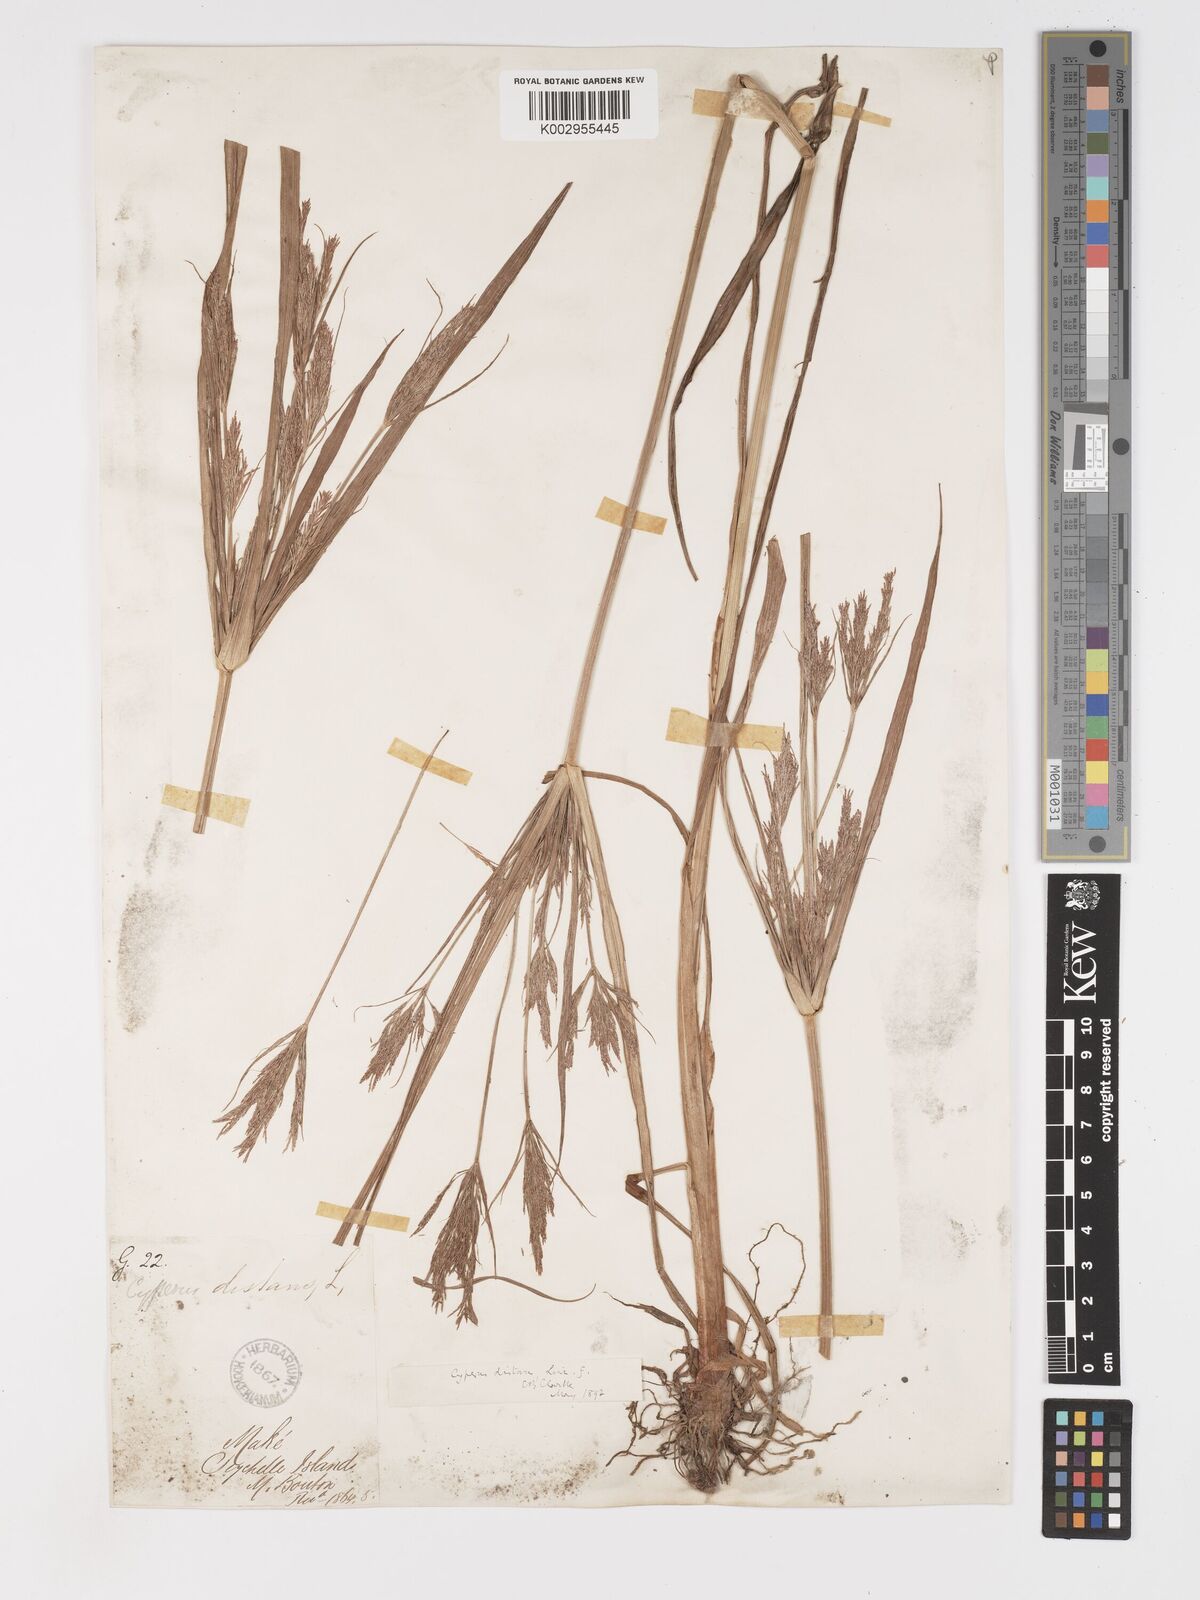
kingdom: Plantae
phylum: Tracheophyta
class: Liliopsida
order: Poales
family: Cyperaceae
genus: Cyperus
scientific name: Cyperus distans
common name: Slender cyperus
